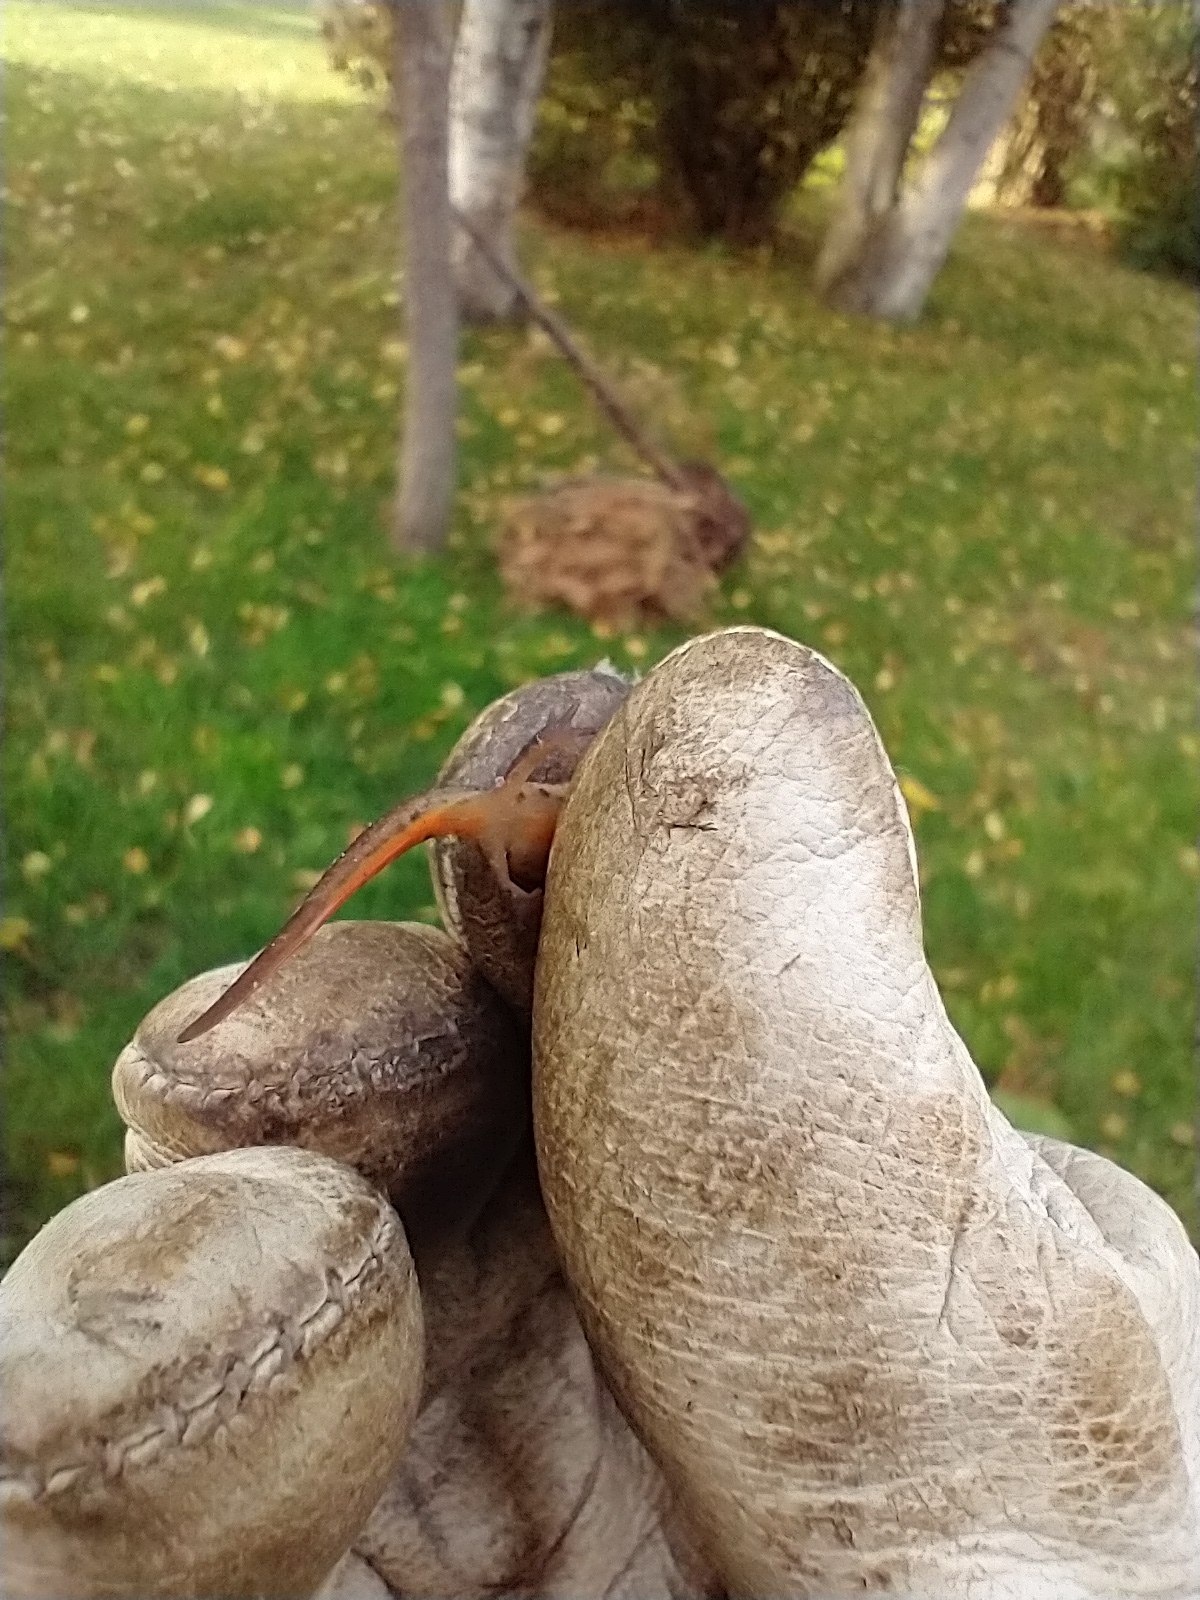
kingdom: Animalia
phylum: Chordata
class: Amphibia
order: Caudata
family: Salamandridae
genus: Lissotriton
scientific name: Lissotriton vulgaris
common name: Lille vandsalamander
